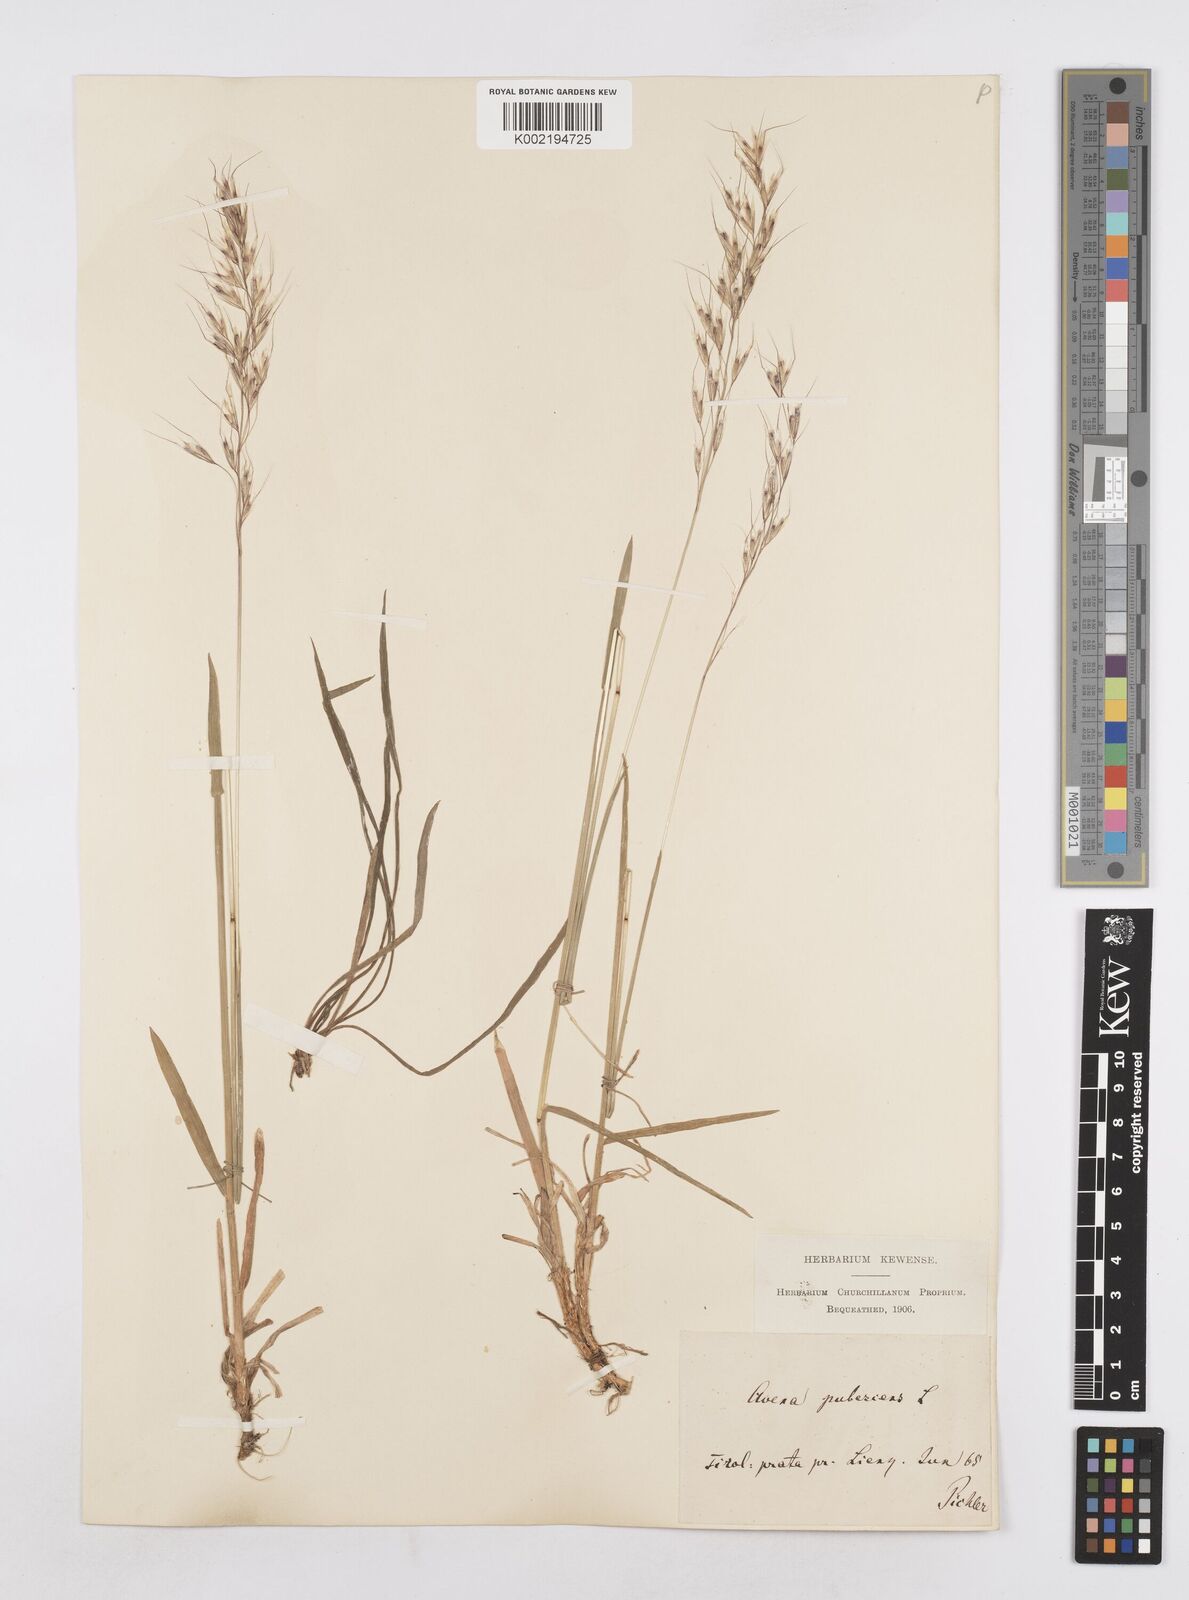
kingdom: Plantae
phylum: Tracheophyta
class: Liliopsida
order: Poales
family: Poaceae
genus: Avenula
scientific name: Avenula pubescens
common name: Downy alpine oatgrass
